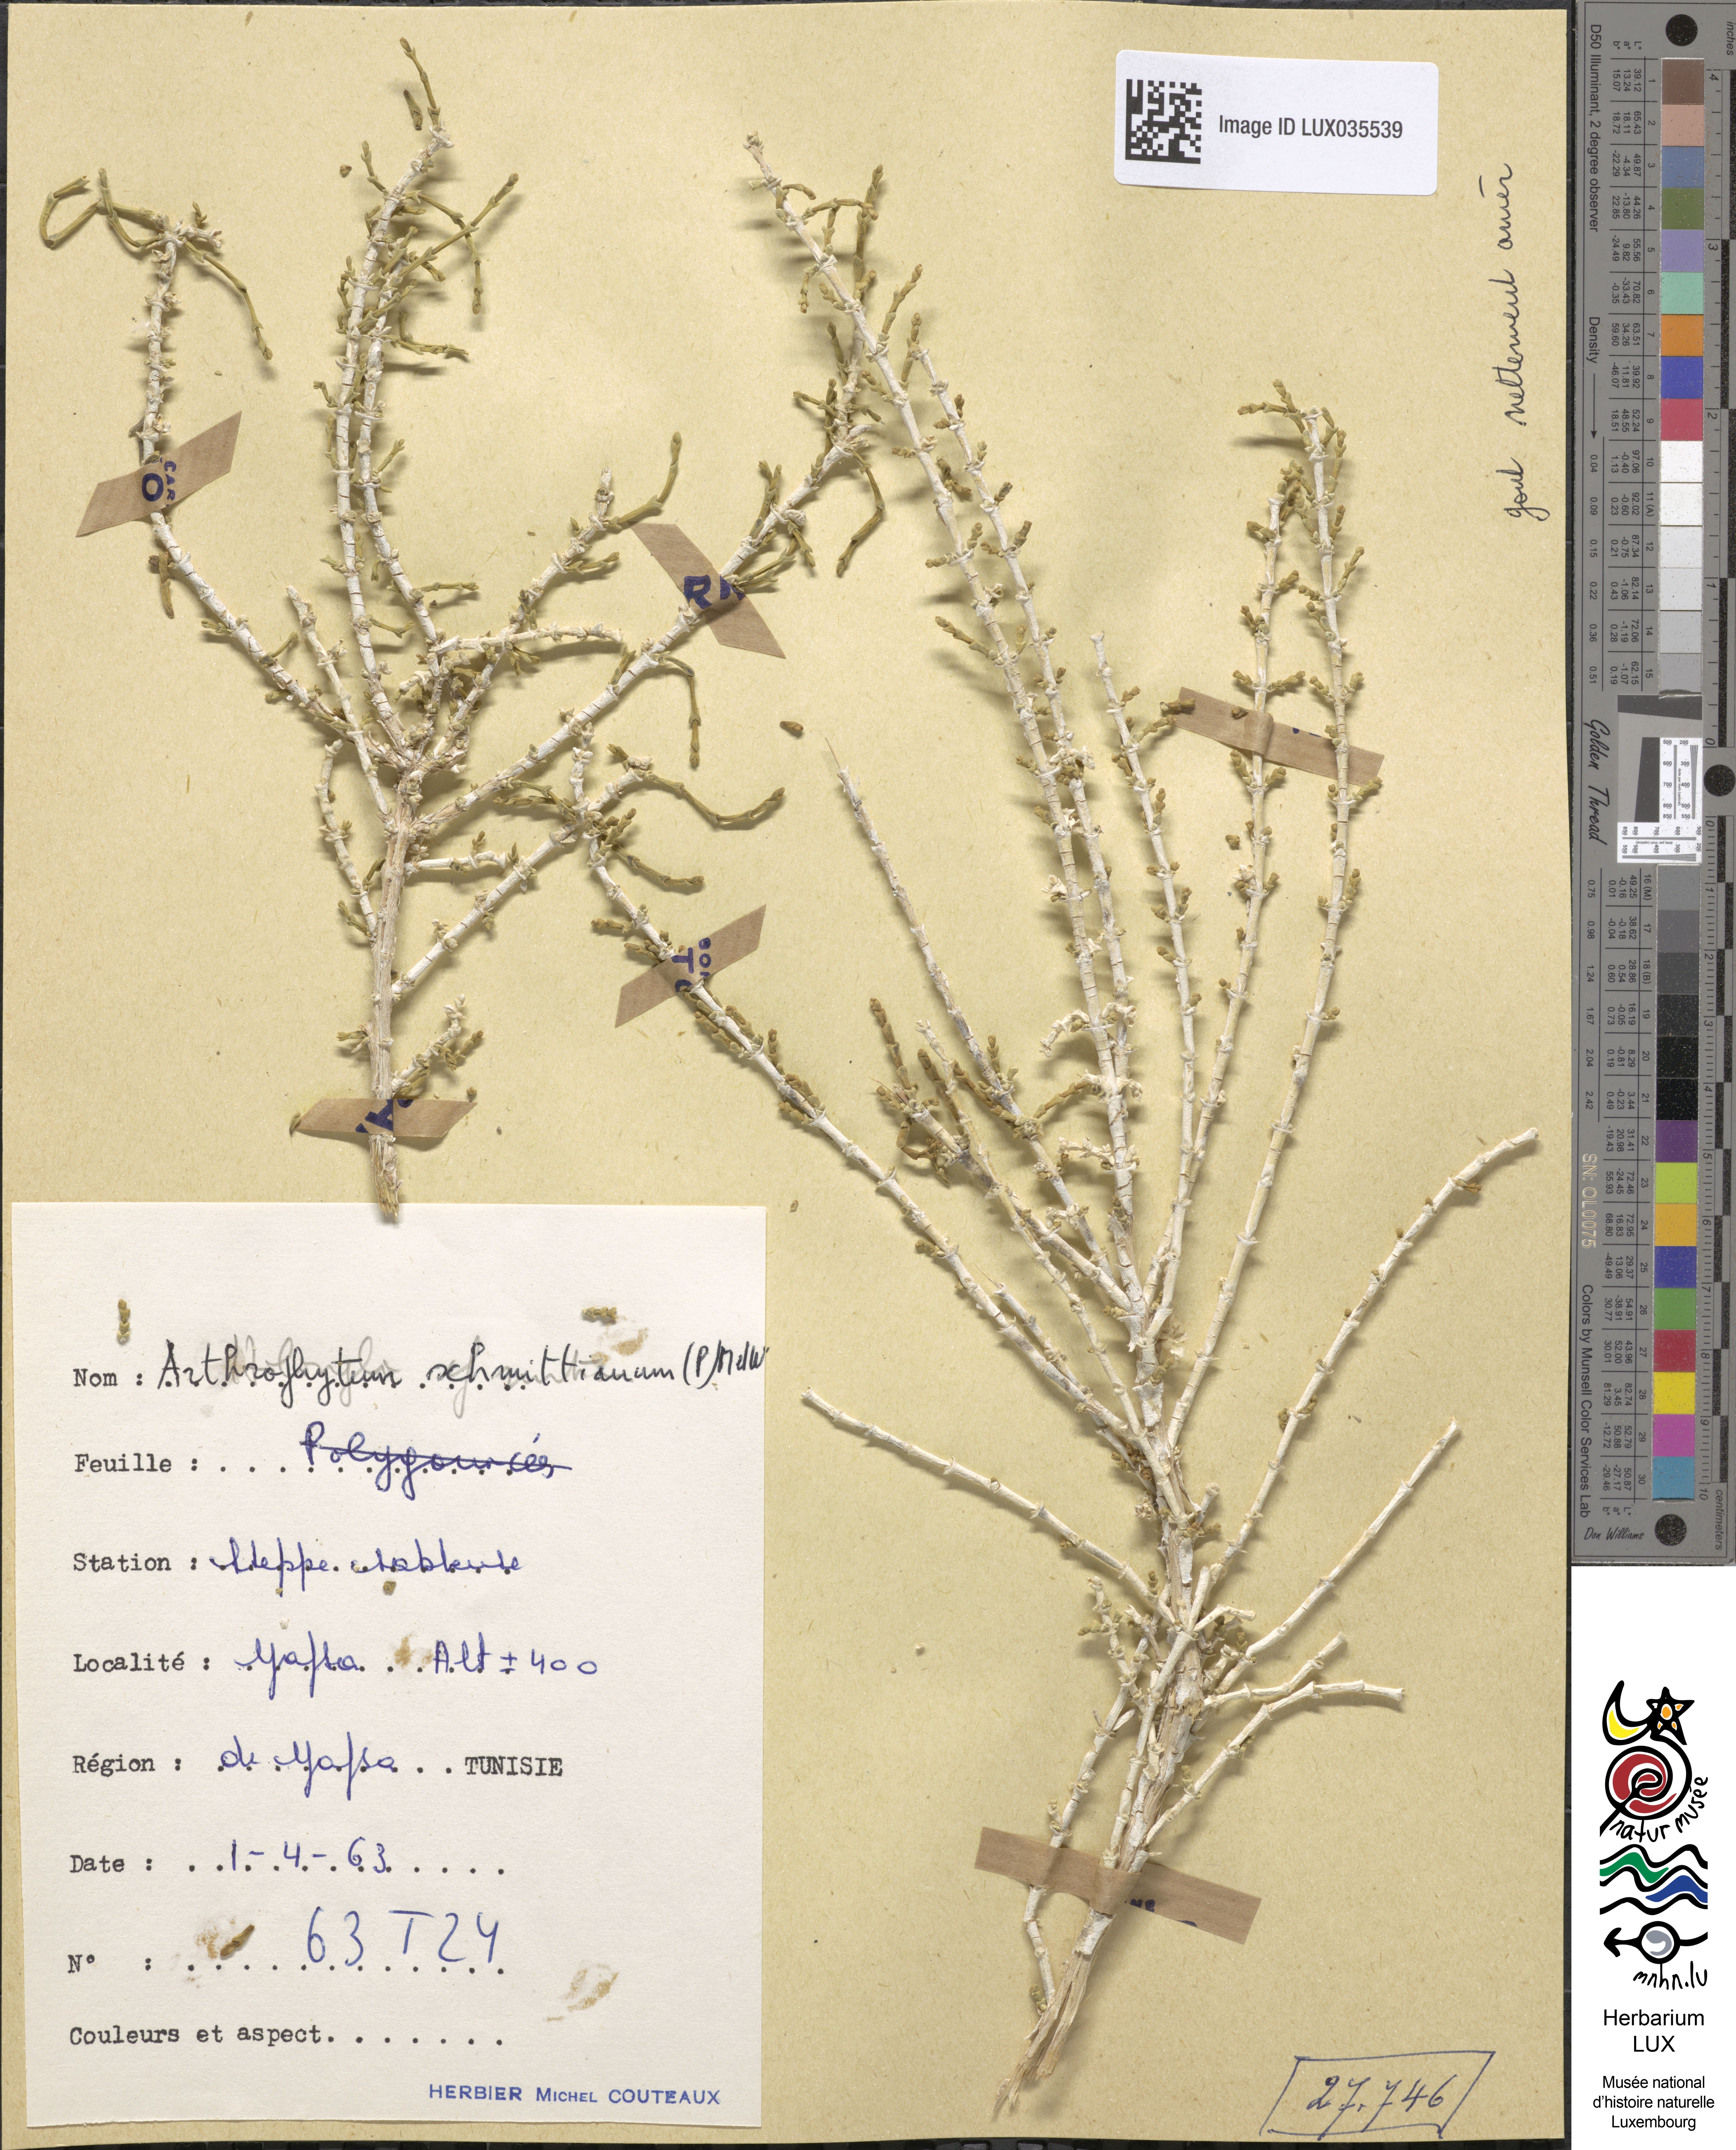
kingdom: Plantae
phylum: Tracheophyta
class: Magnoliopsida
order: Caryophyllales
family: Amaranthaceae
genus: Haloxylon
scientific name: Haloxylon schmittianum
